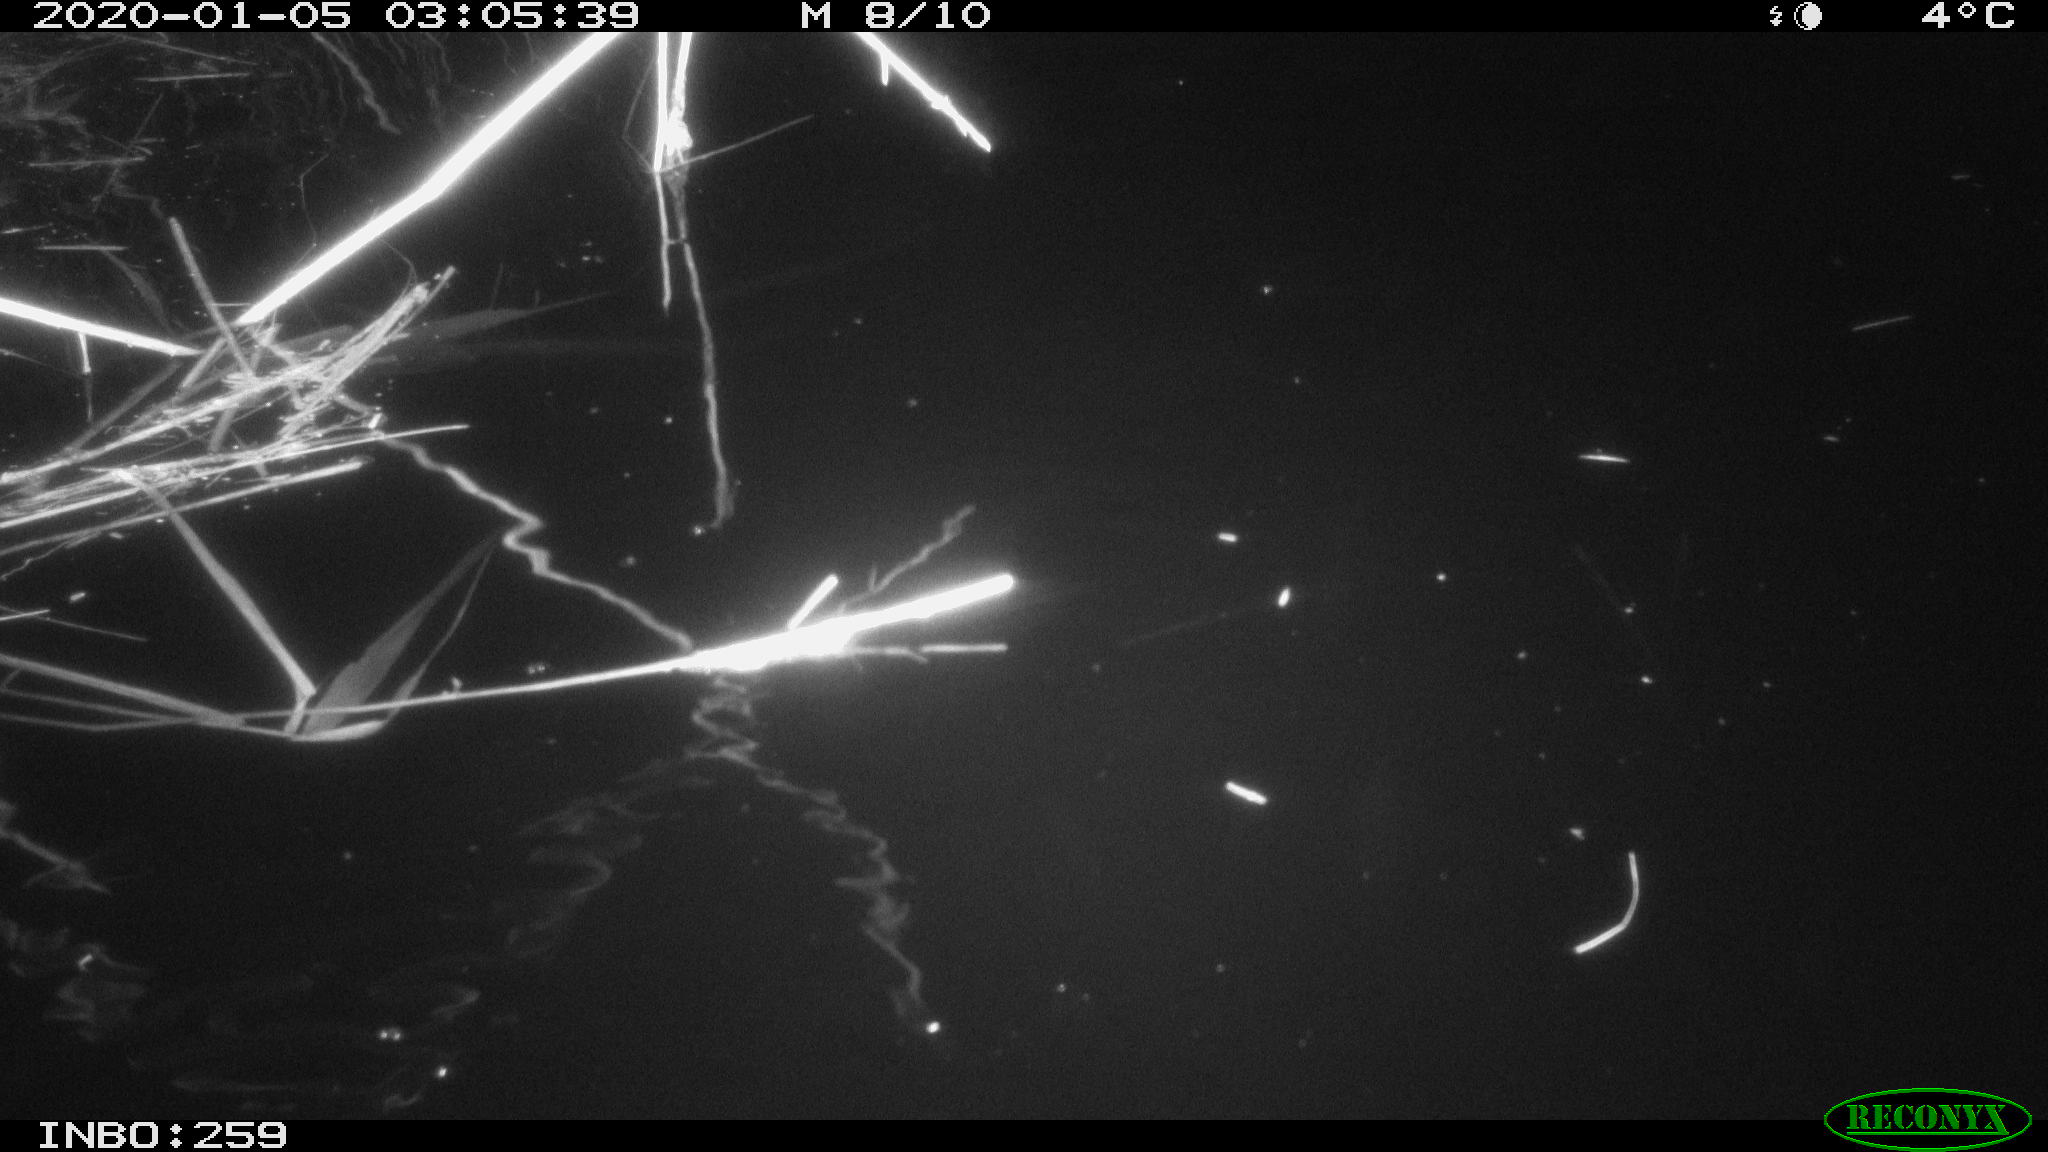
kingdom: Animalia
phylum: Chordata
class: Mammalia
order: Rodentia
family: Cricetidae
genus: Ondatra
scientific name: Ondatra zibethicus
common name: Muskrat
